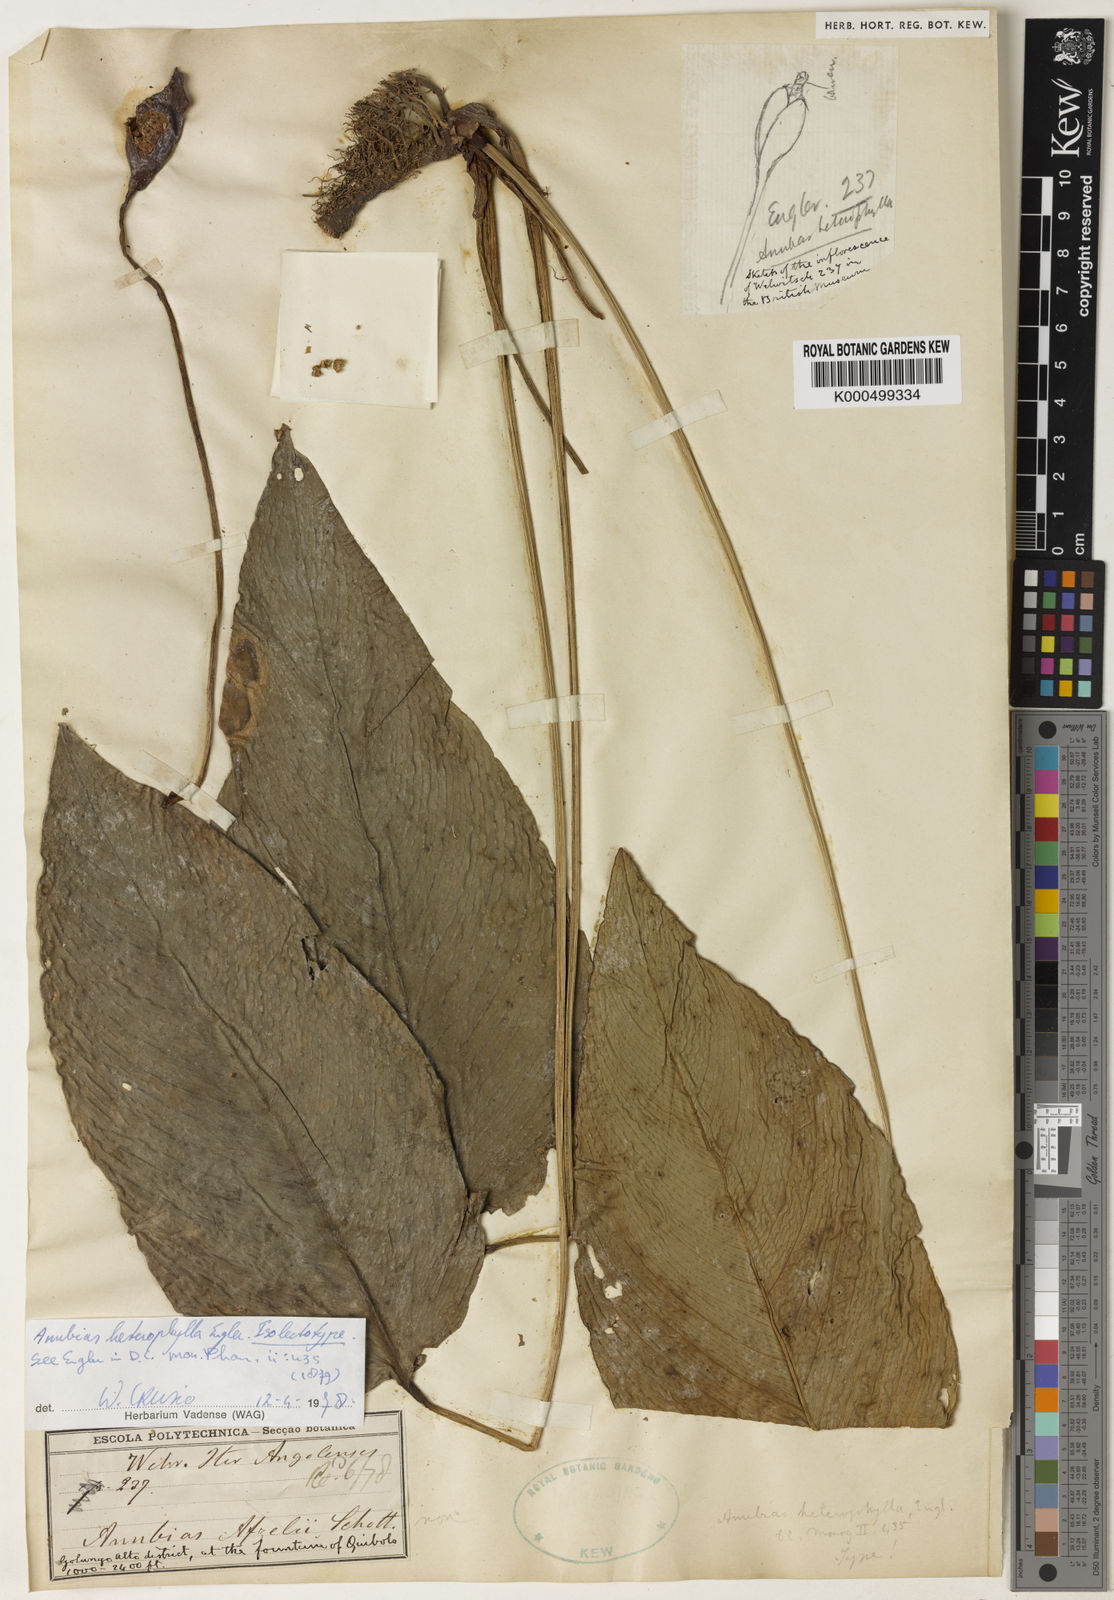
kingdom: Plantae
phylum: Tracheophyta
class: Liliopsida
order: Alismatales
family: Araceae
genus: Anubias
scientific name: Anubias heterophylla
